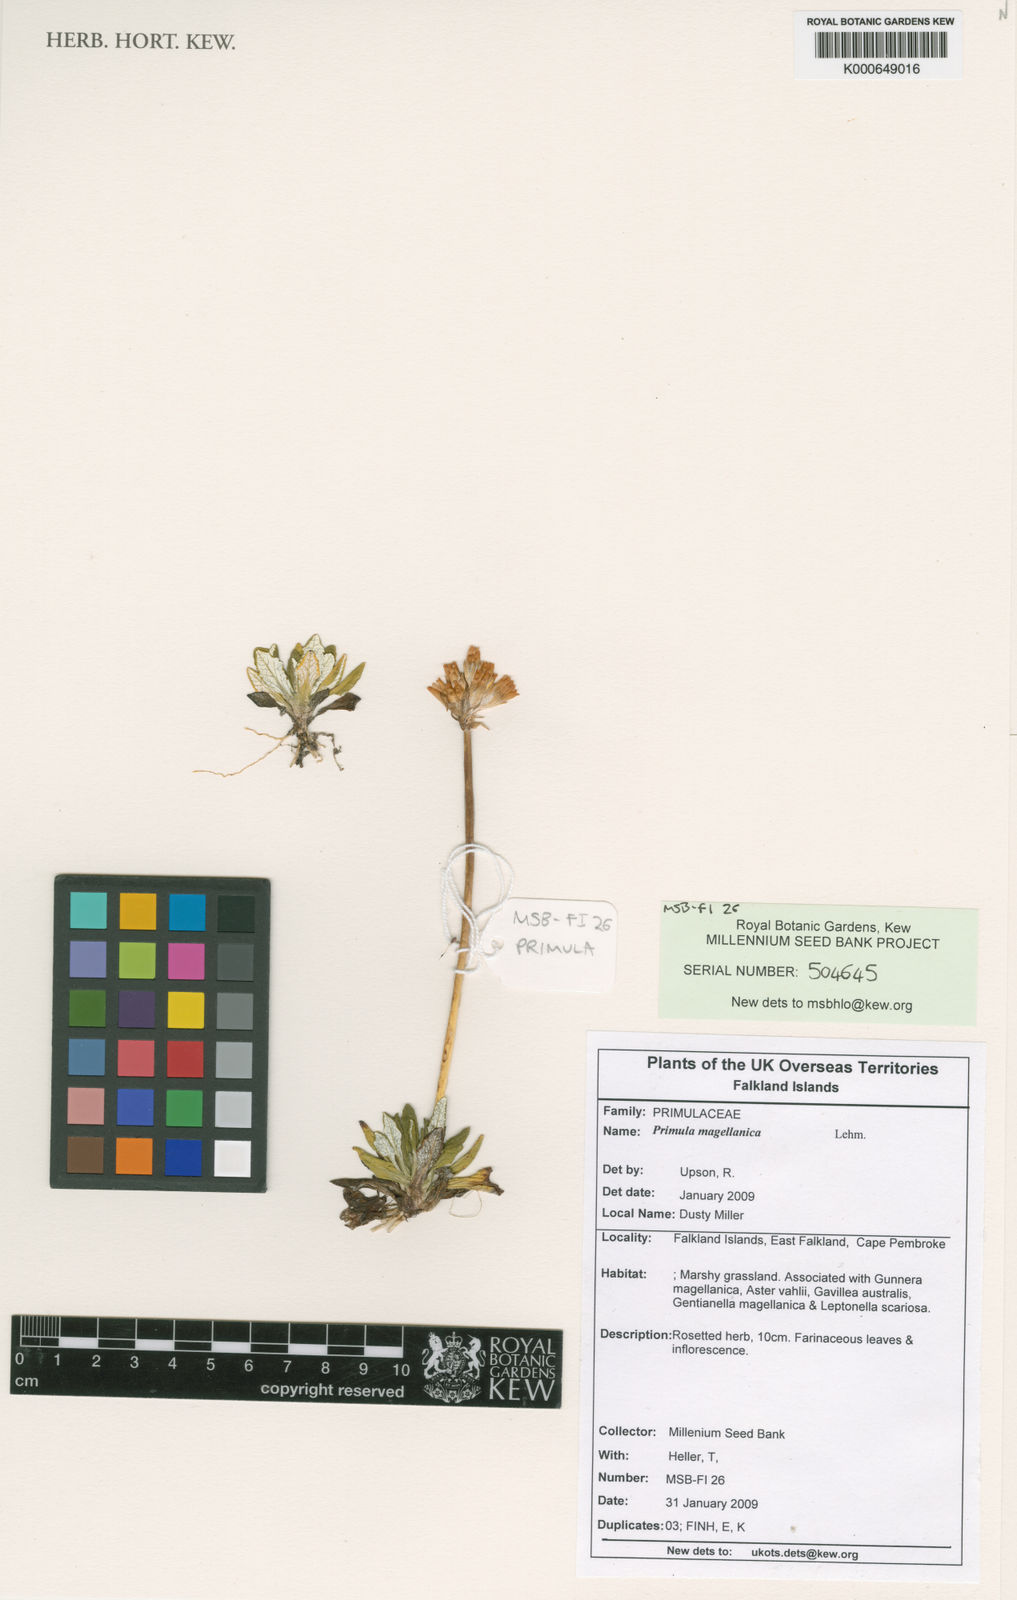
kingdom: Plantae
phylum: Tracheophyta
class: Magnoliopsida
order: Ericales
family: Primulaceae
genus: Primula
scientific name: Primula magellanica
